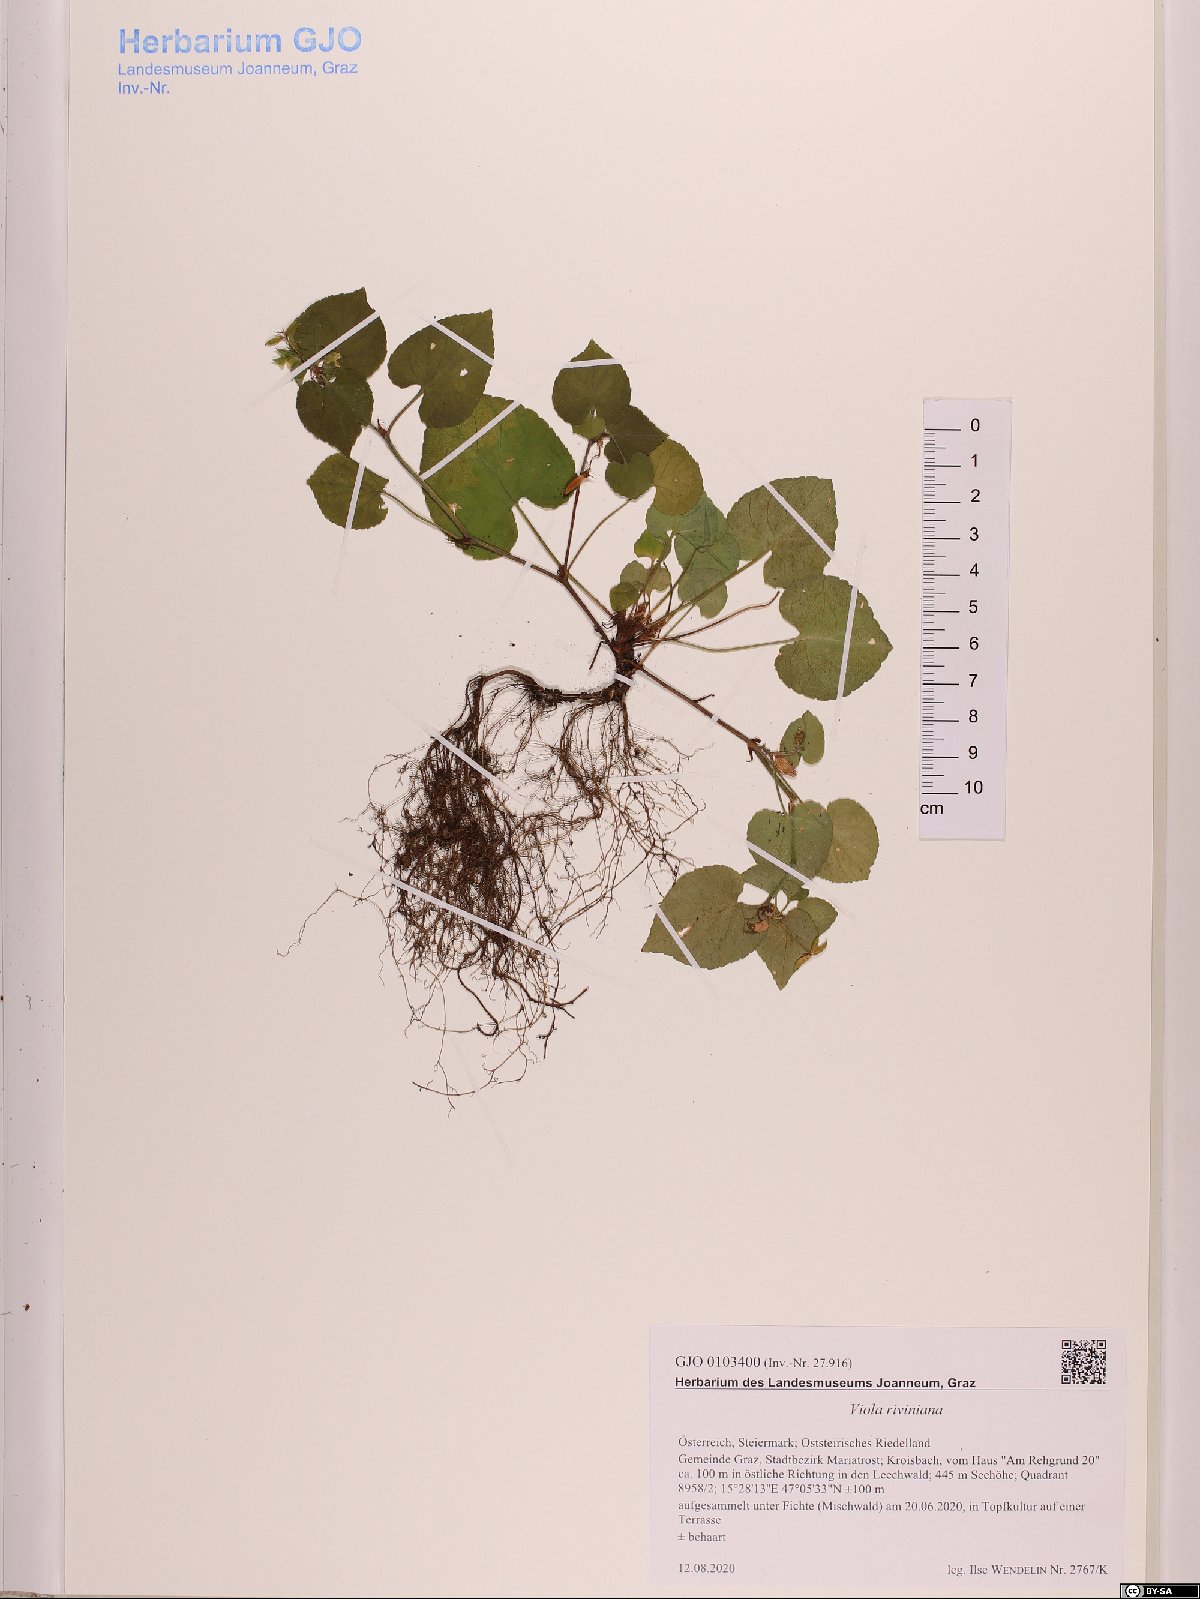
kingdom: Plantae
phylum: Tracheophyta
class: Magnoliopsida
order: Malpighiales
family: Violaceae
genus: Viola
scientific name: Viola riviniana
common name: Common dog-violet
